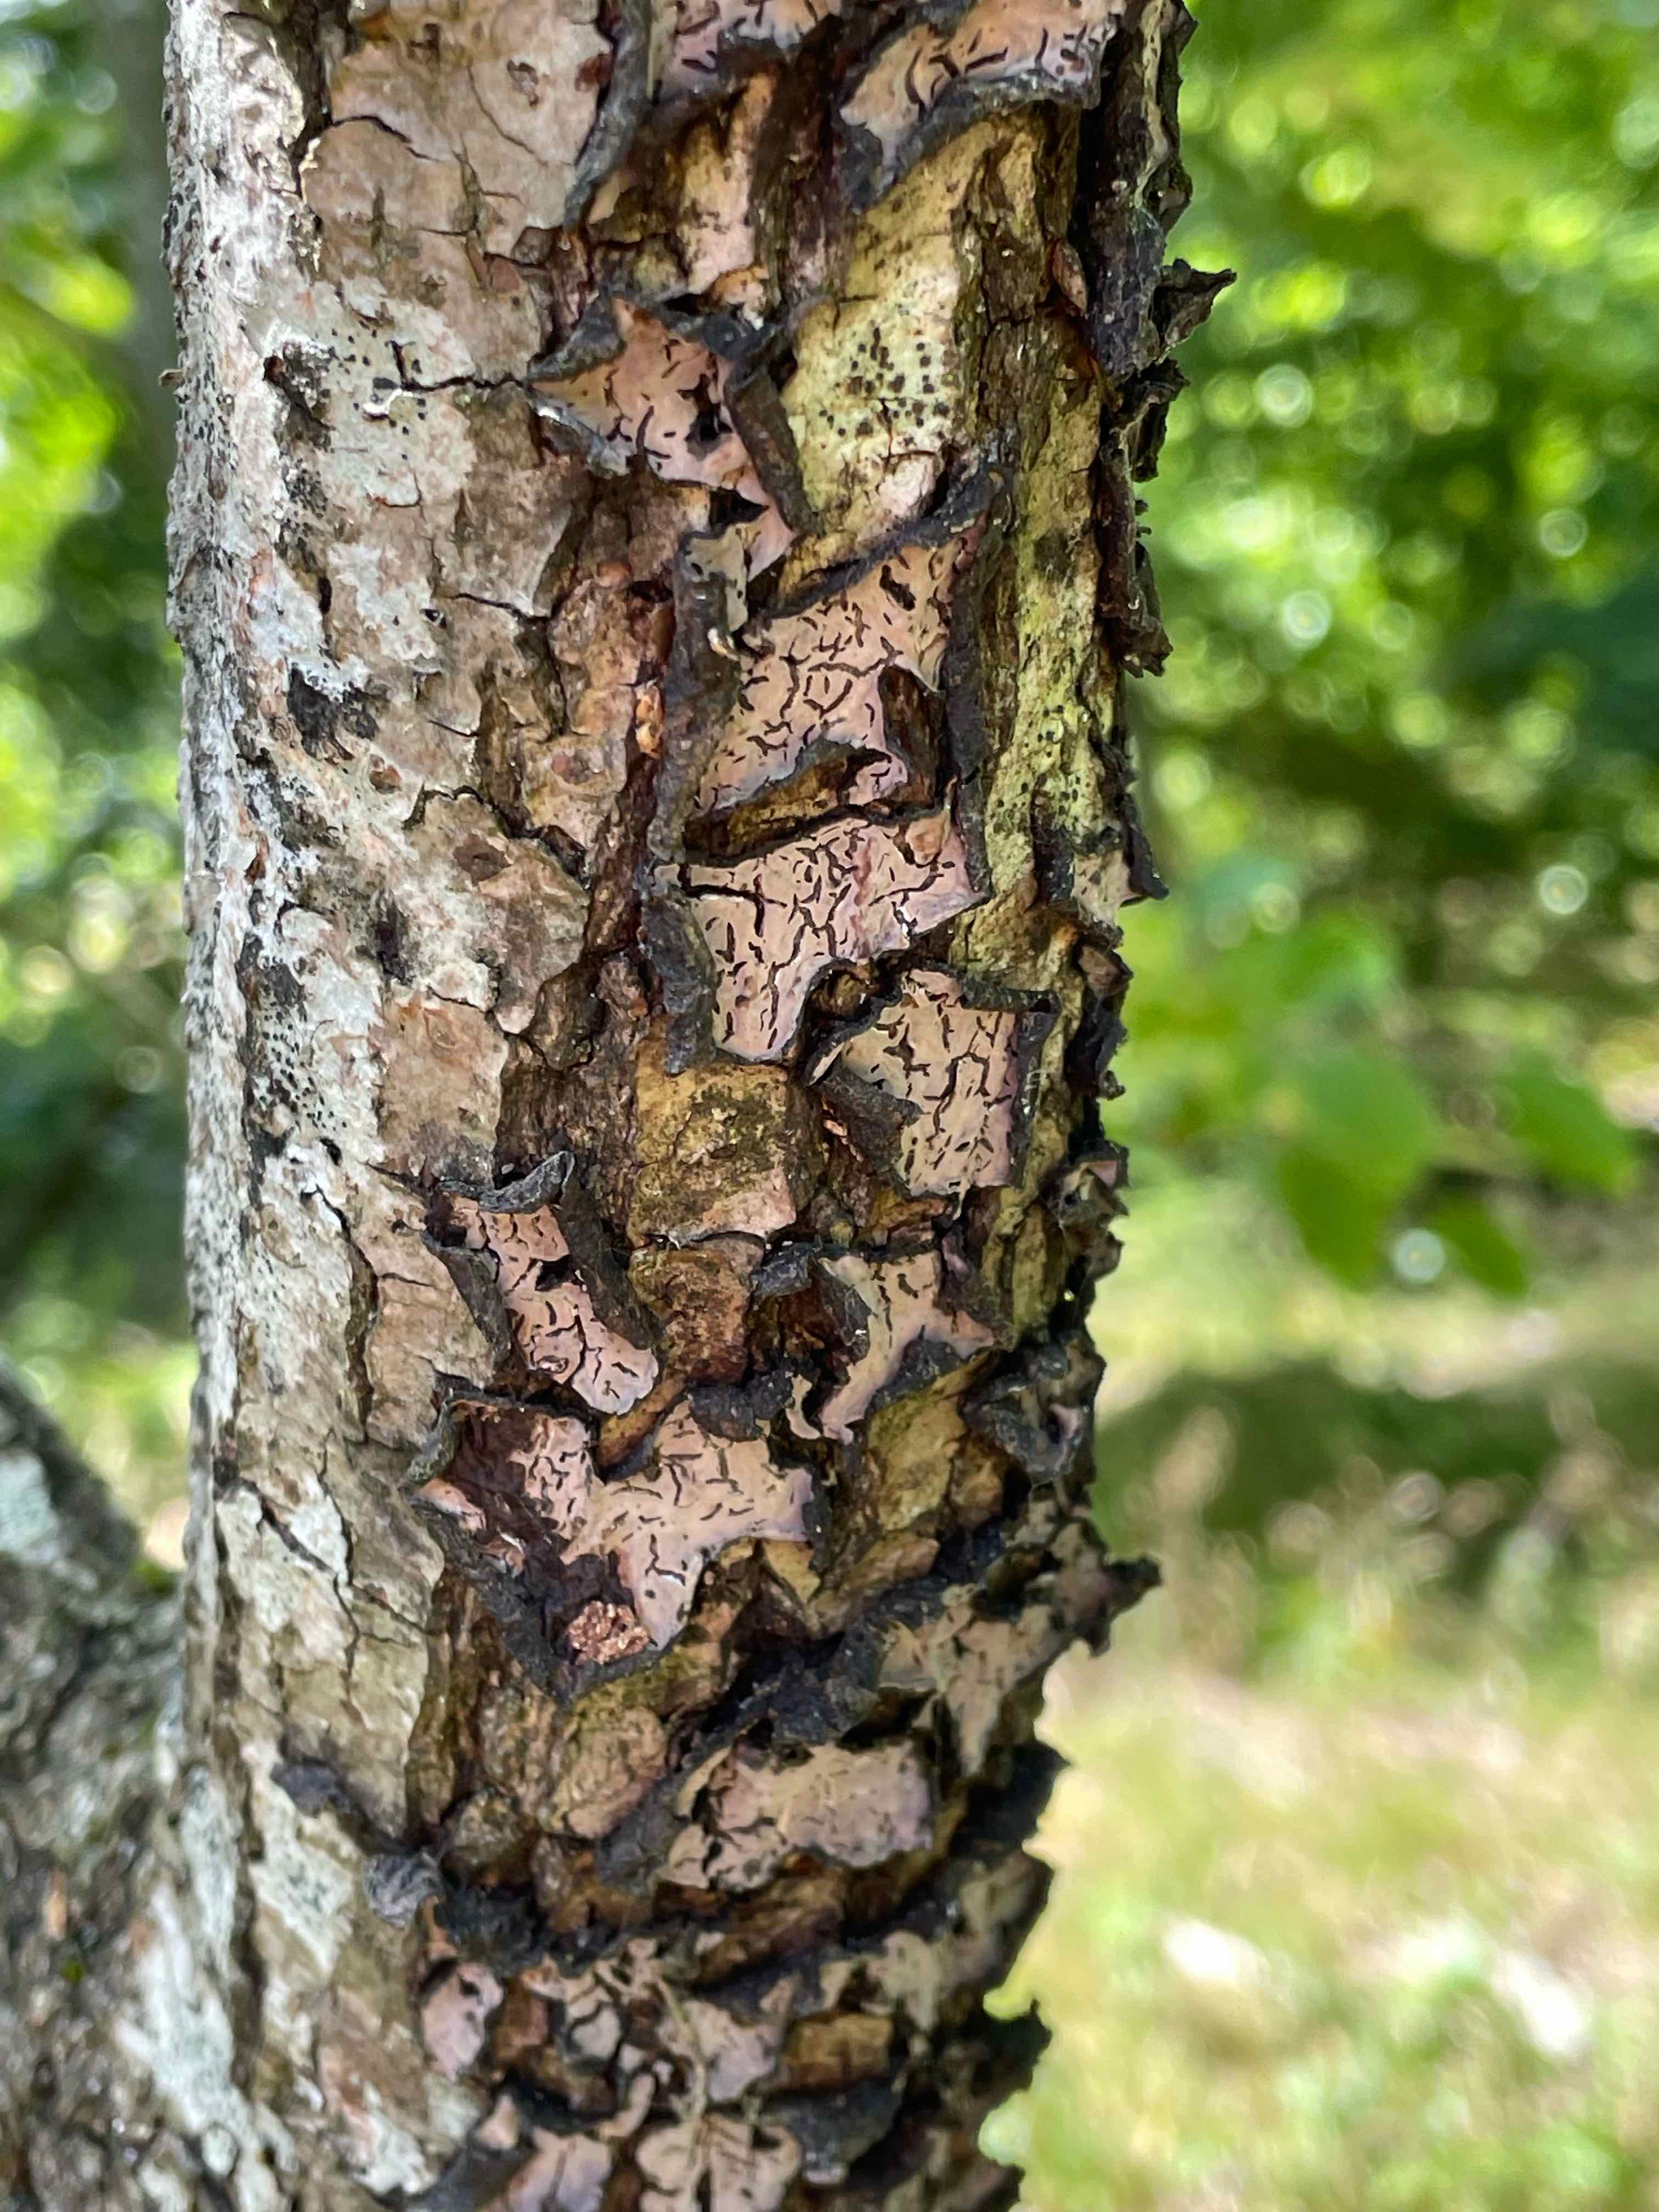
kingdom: Fungi
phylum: Basidiomycota
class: Agaricomycetes
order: Russulales
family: Peniophoraceae
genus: Peniophora
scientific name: Peniophora quercina
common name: ege-voksskind
